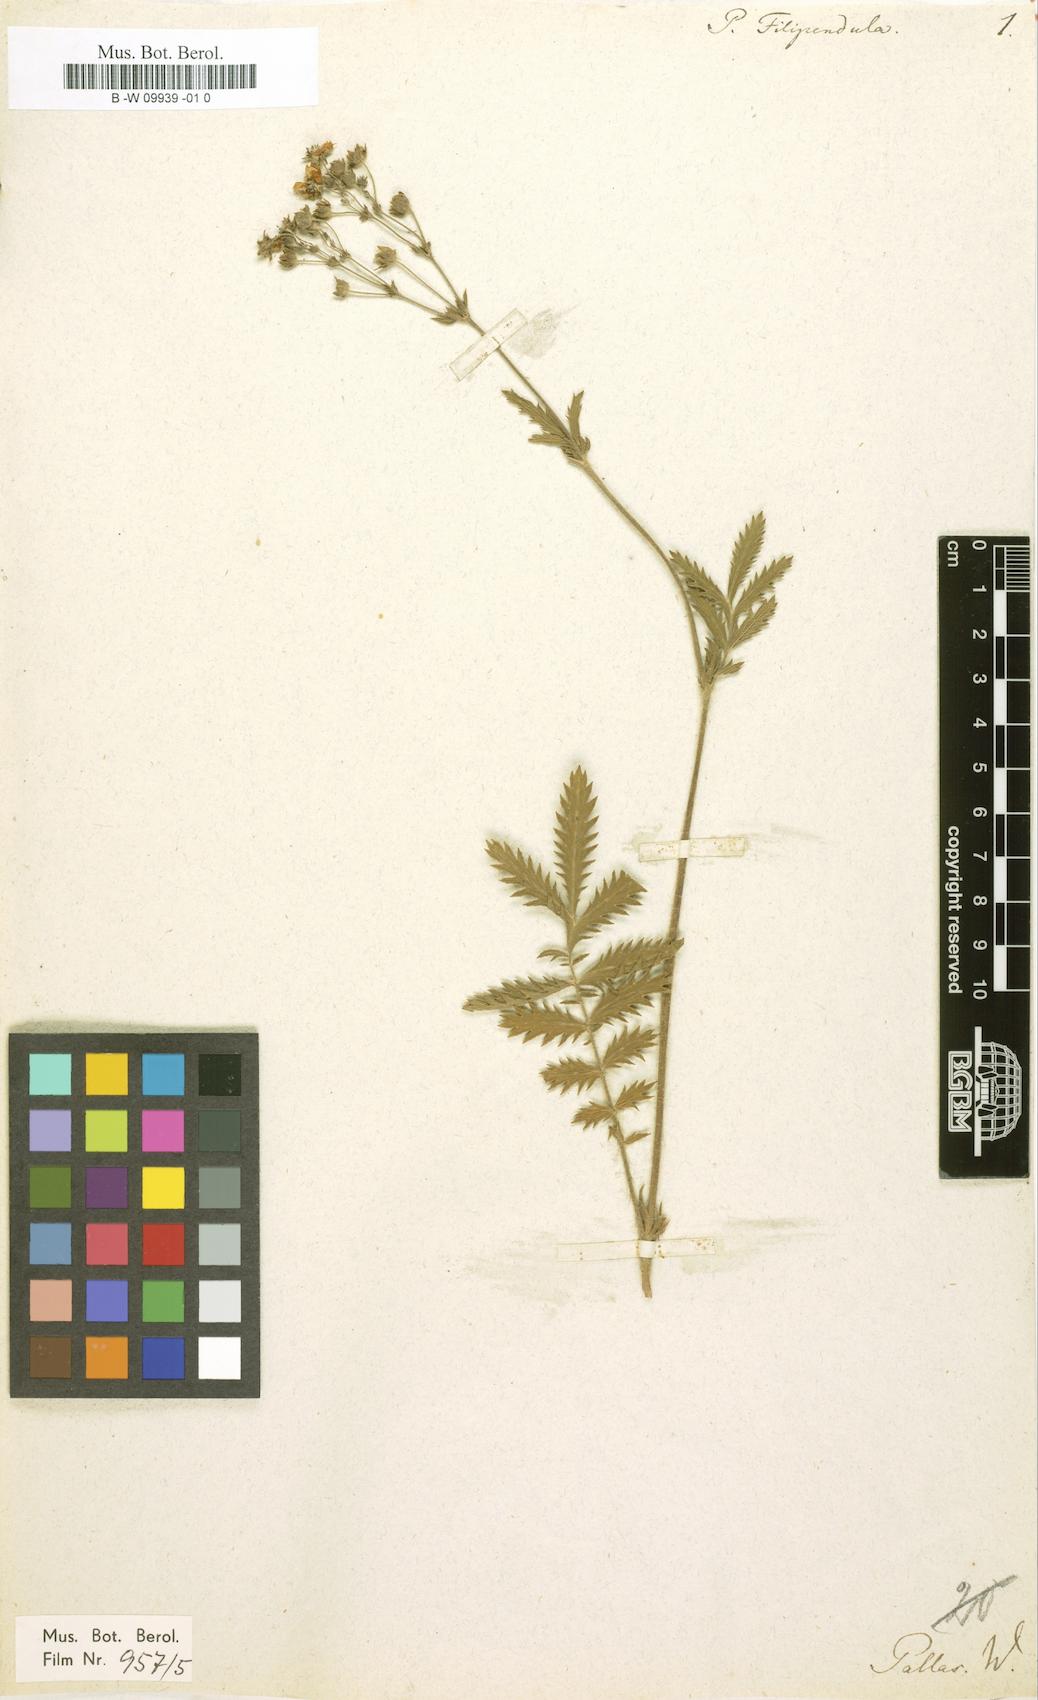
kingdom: Plantae
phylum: Tracheophyta
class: Magnoliopsida
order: Rosales
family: Rosaceae
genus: Potentilla
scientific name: Potentilla tanacetifolia
